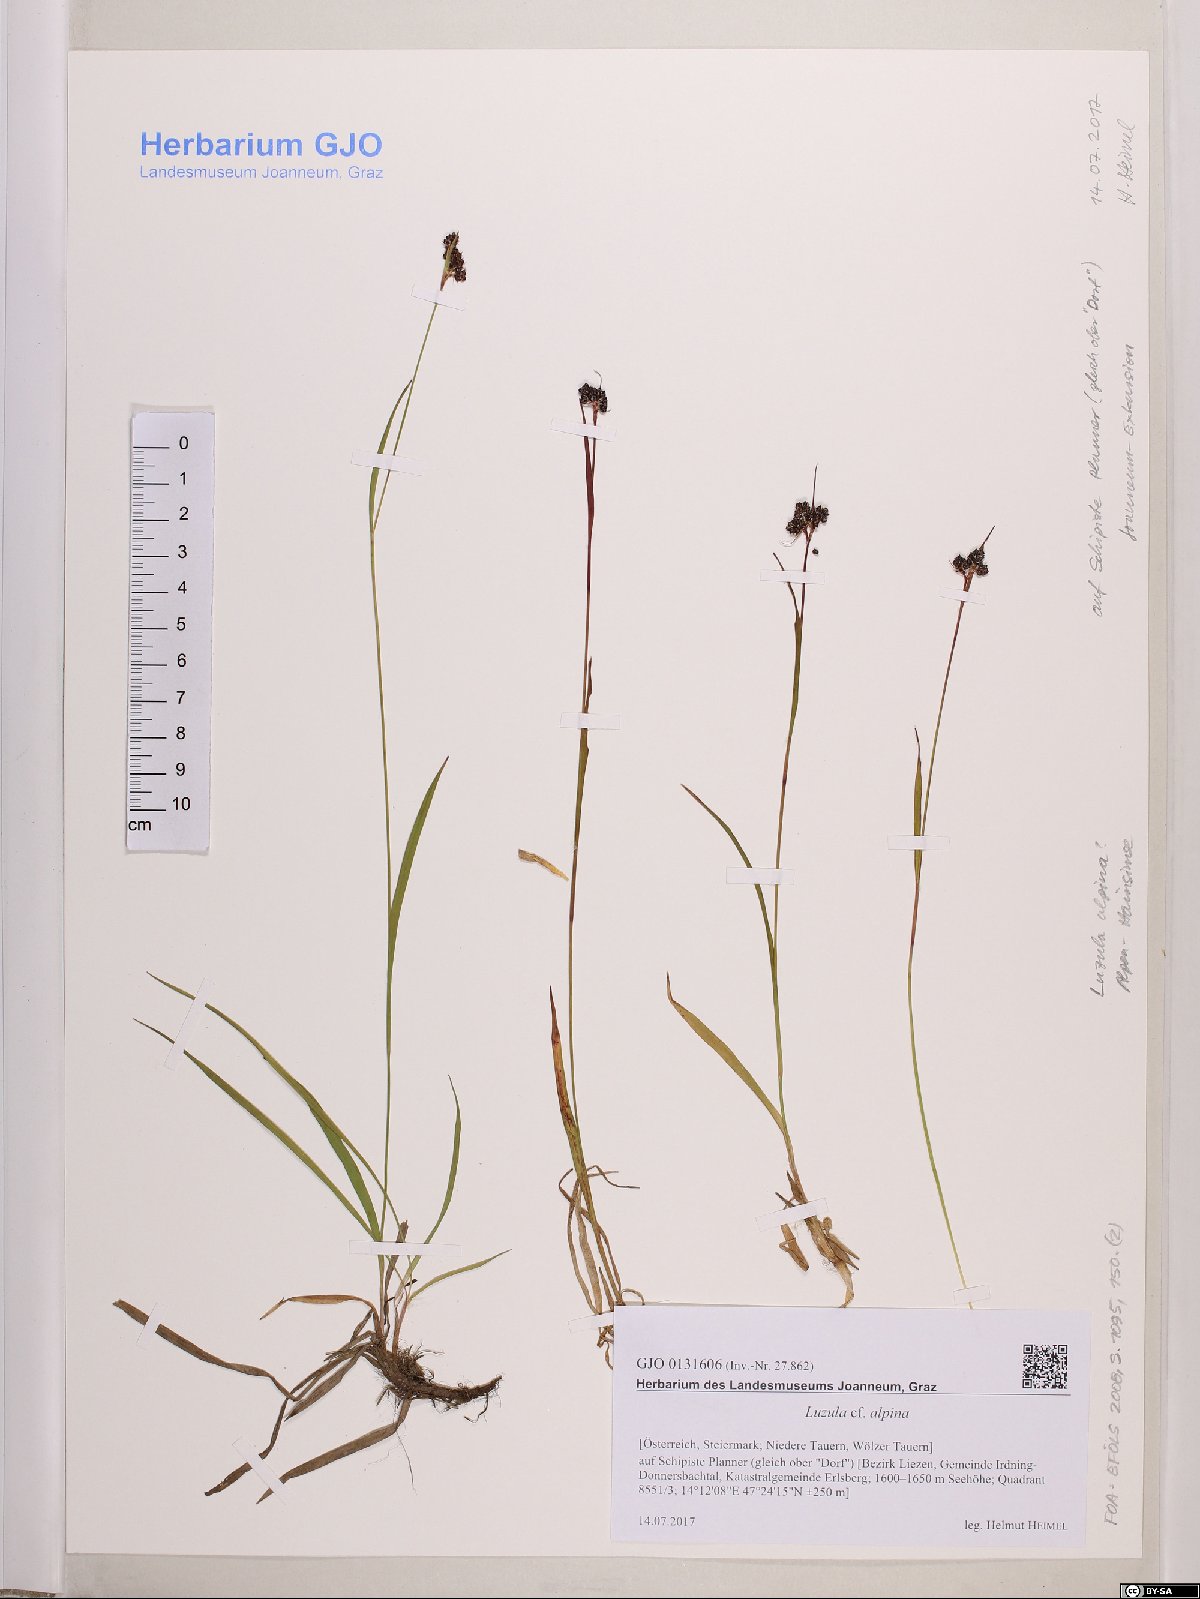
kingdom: Plantae
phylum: Tracheophyta
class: Liliopsida
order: Poales
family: Juncaceae
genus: Luzula
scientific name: Luzula alpina
